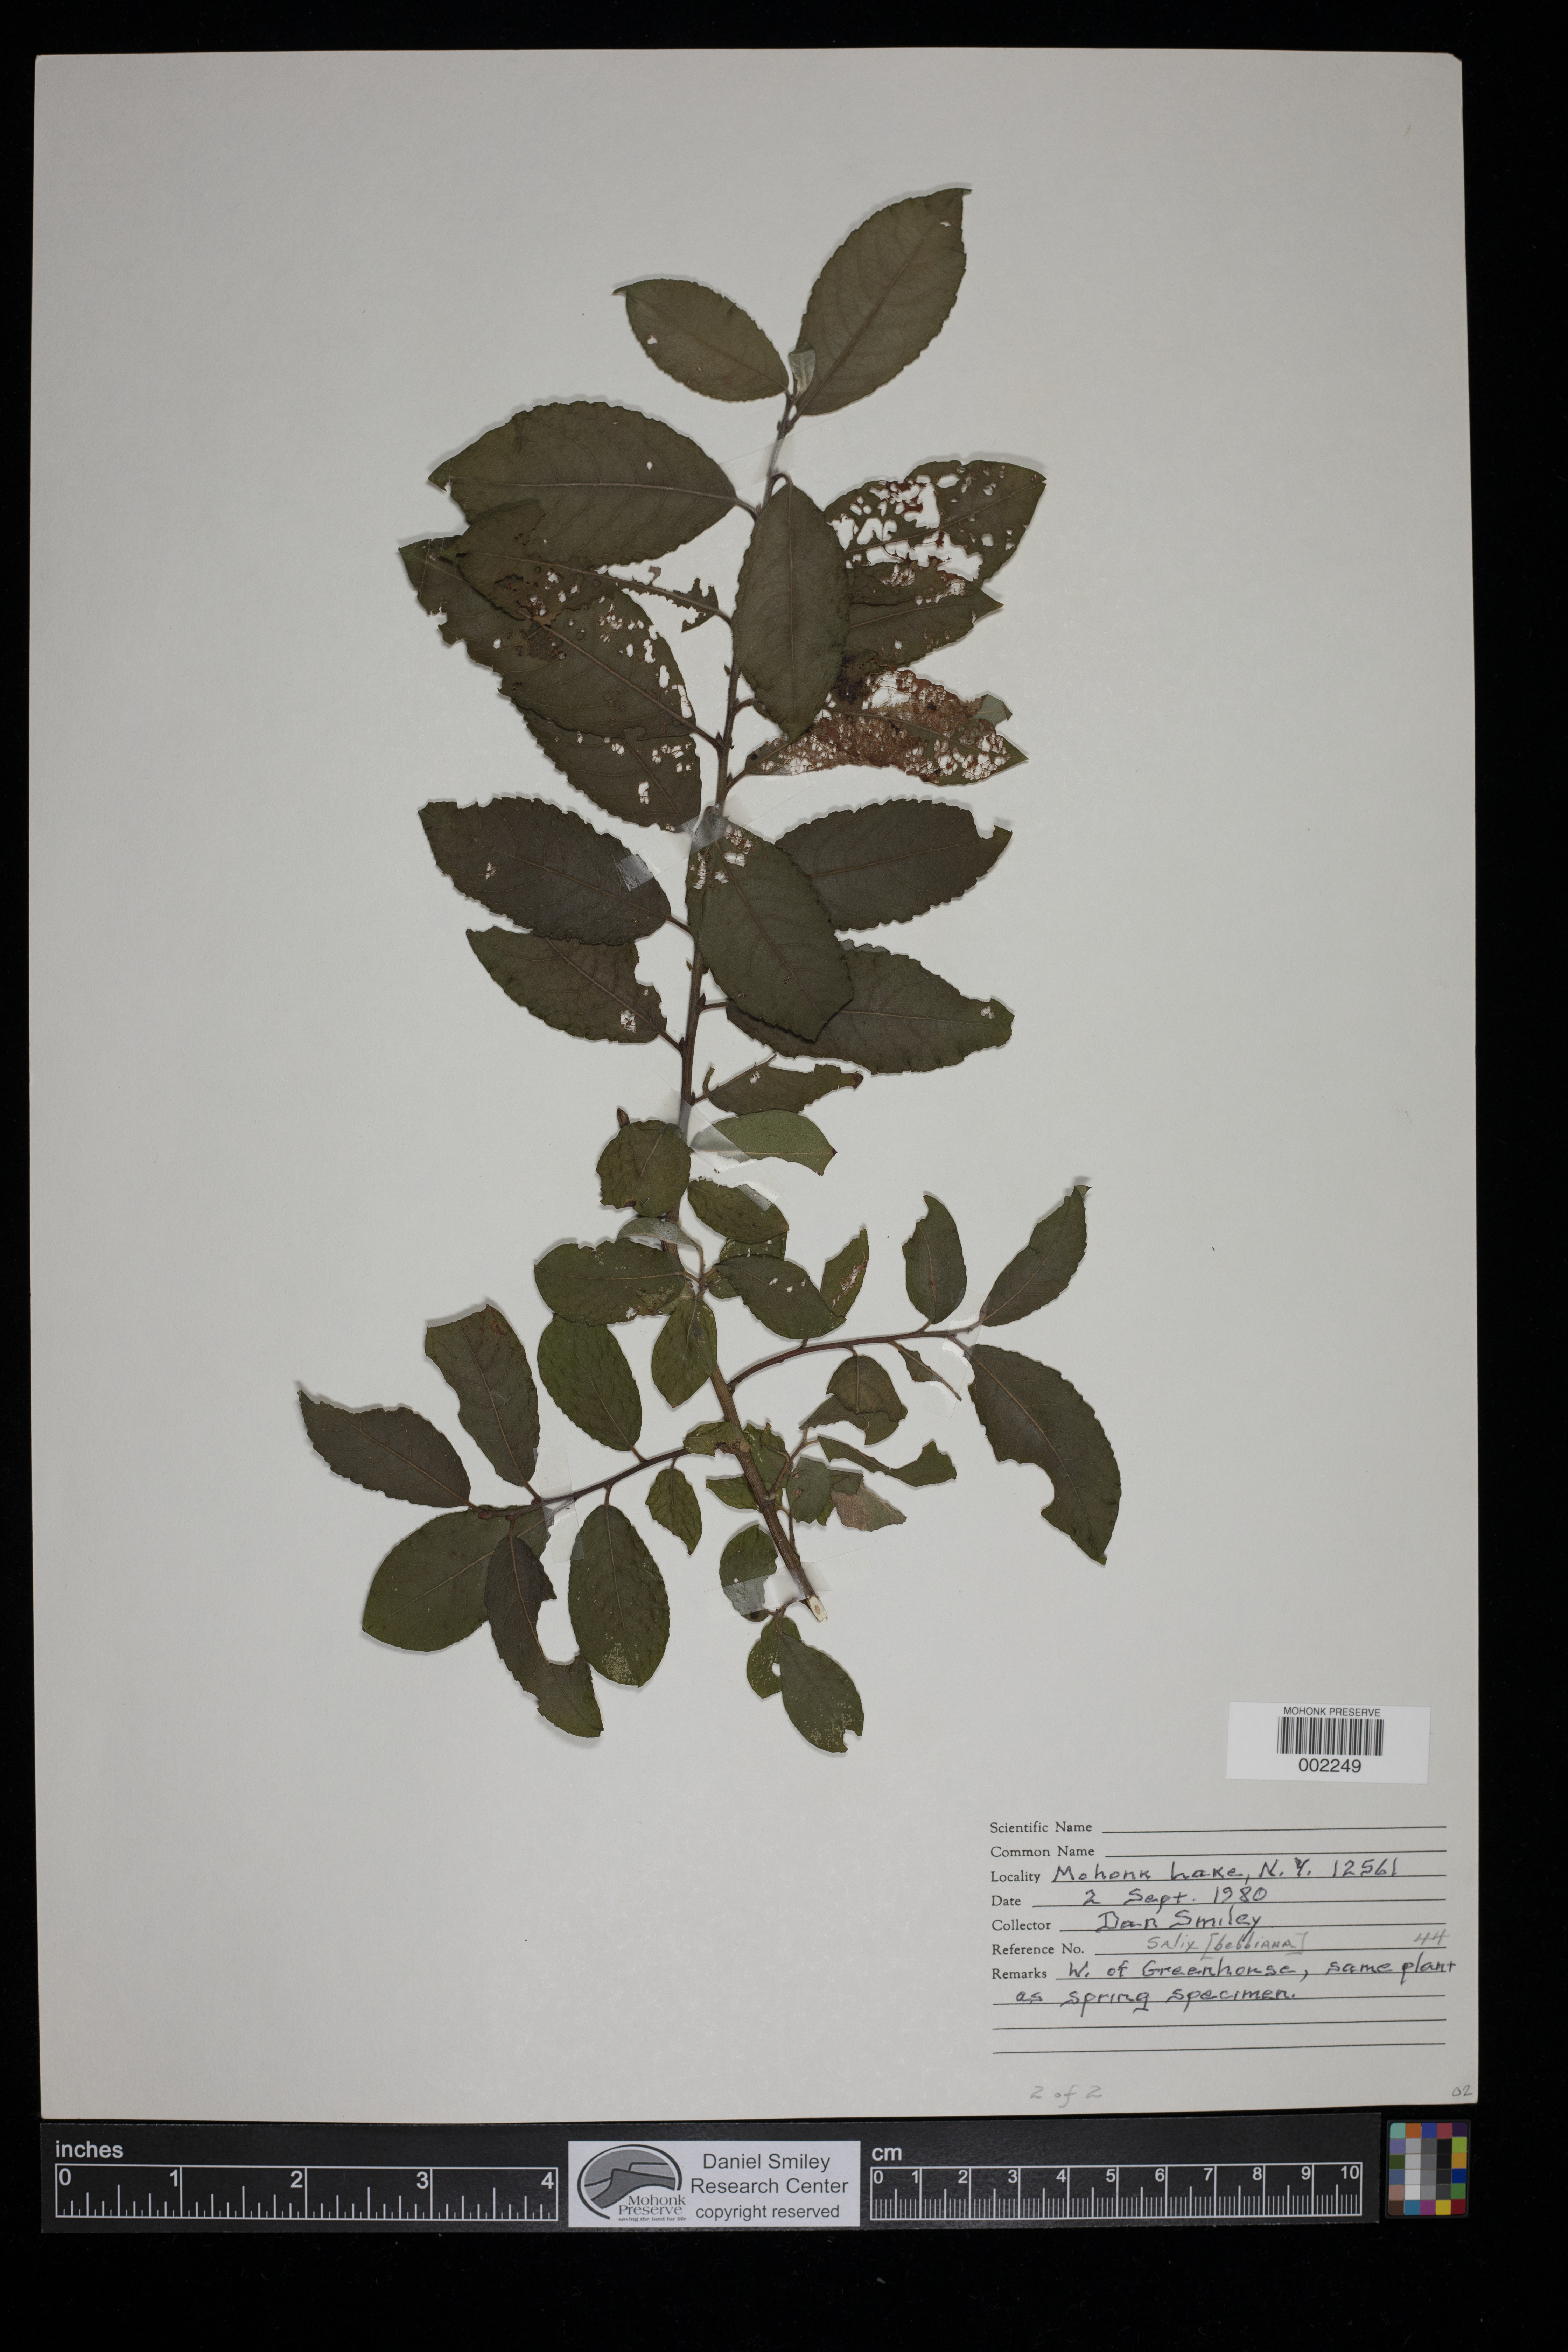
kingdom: Plantae
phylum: Tracheophyta
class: Magnoliopsida
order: Malpighiales
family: Salicaceae
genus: Salix
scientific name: Salix bebbiana
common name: Bebb's willow
